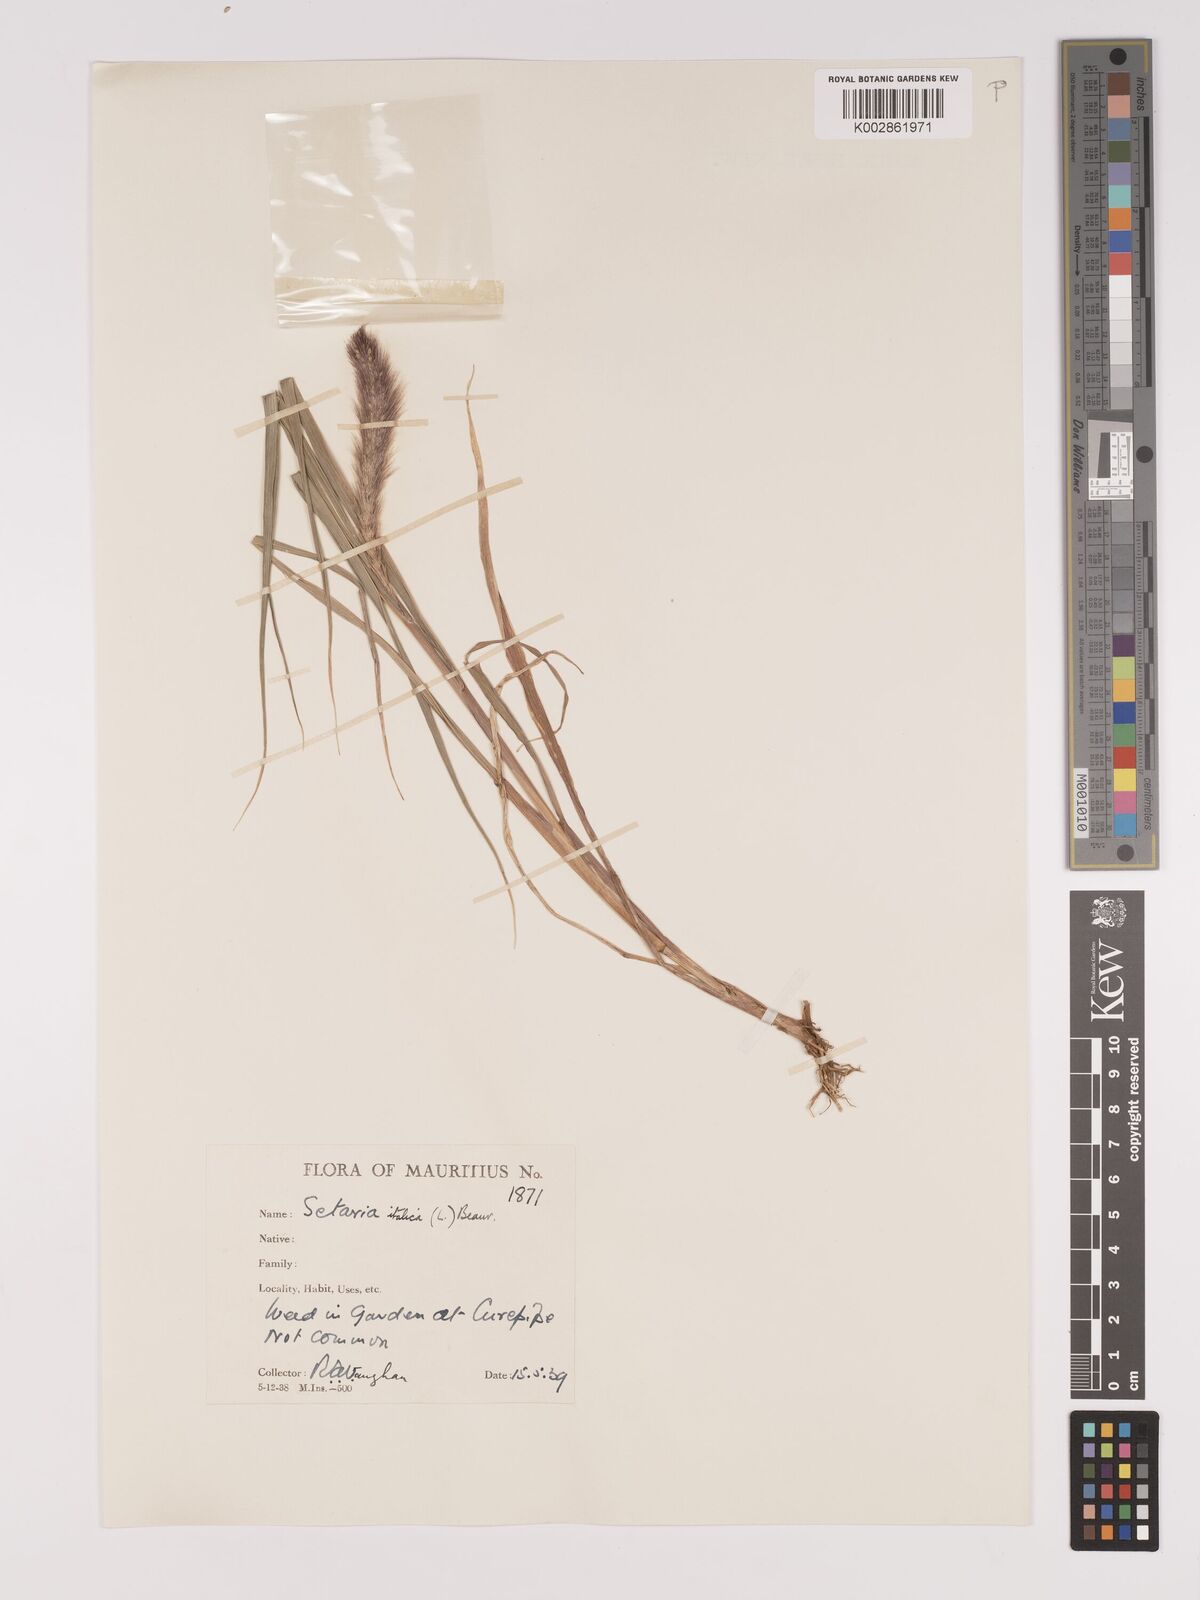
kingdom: Plantae
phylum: Tracheophyta
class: Liliopsida
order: Poales
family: Poaceae
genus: Setaria
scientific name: Setaria italica
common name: Foxtail bristle-grass
